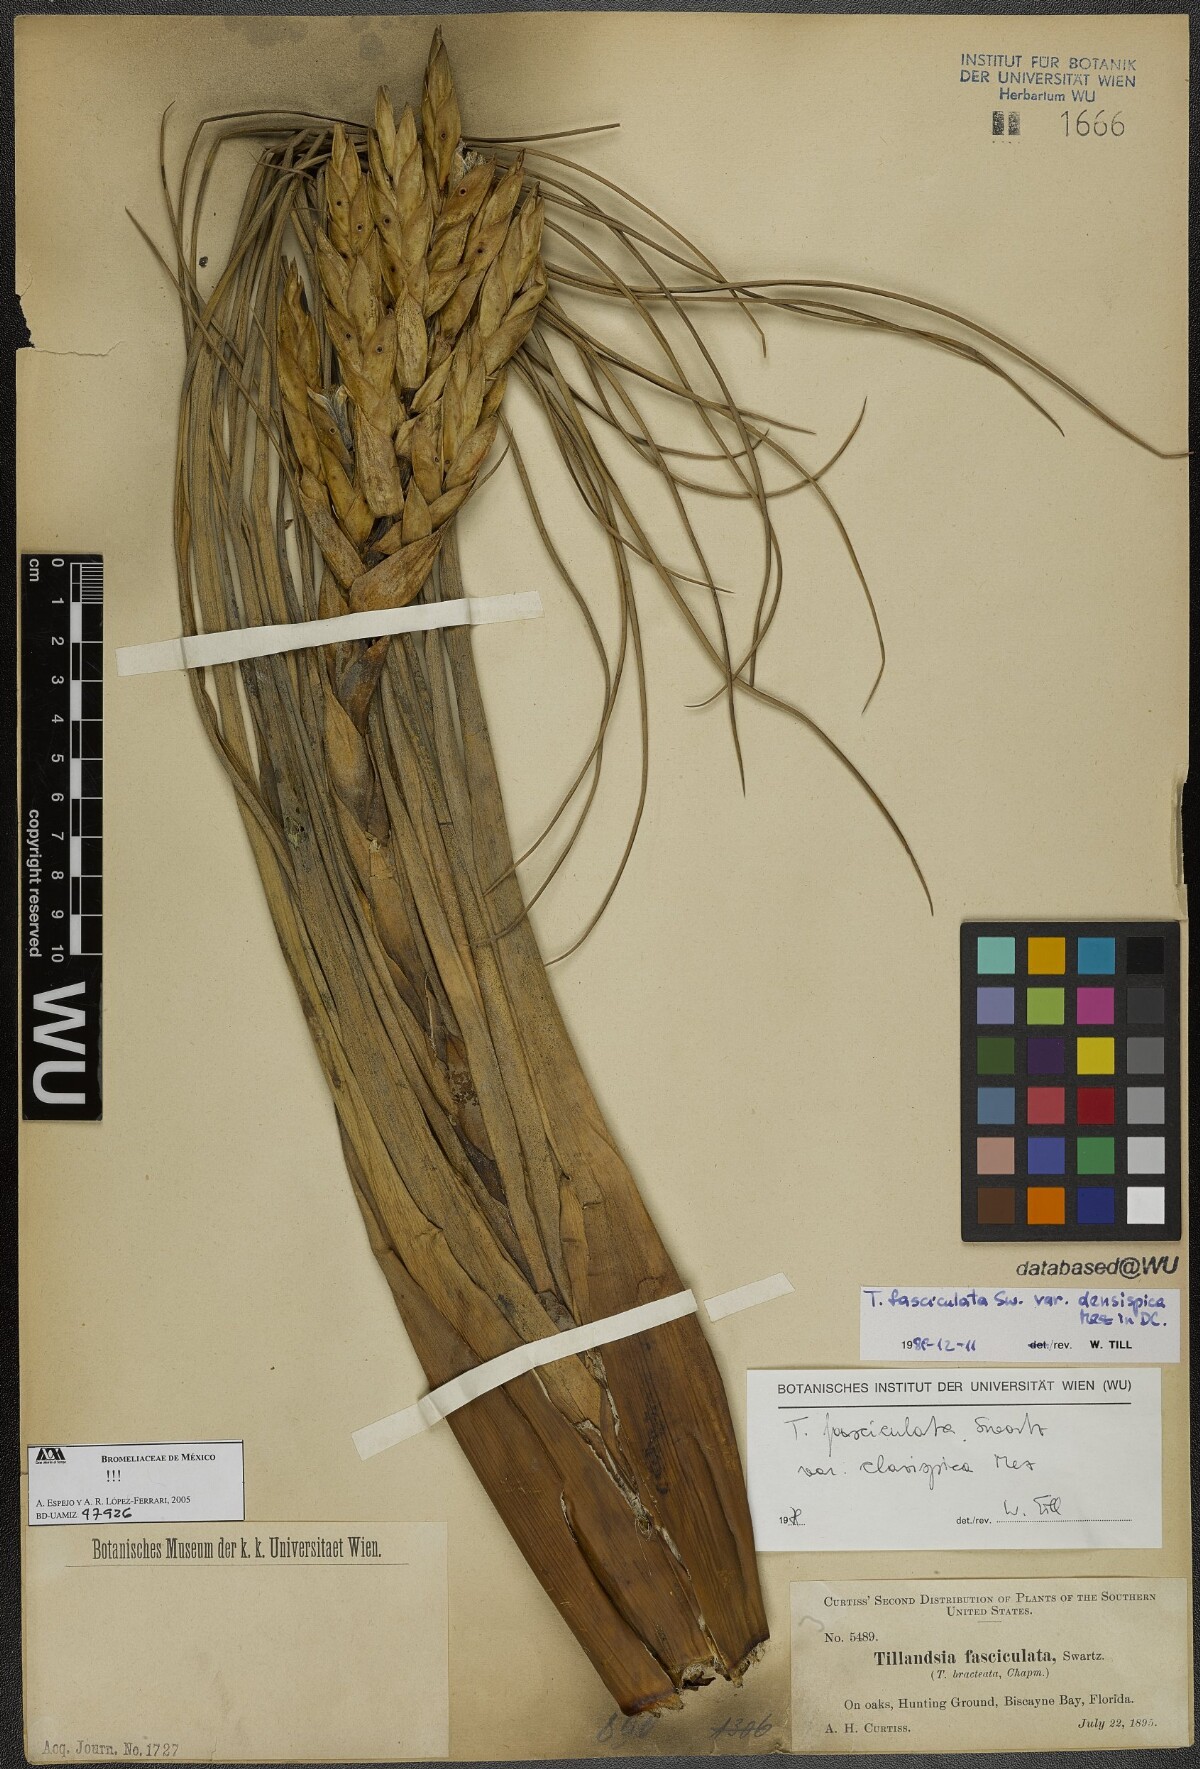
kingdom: Plantae
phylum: Tracheophyta
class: Liliopsida
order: Poales
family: Bromeliaceae
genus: Tillandsia
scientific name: Tillandsia fasciculata
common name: Giant airplant
